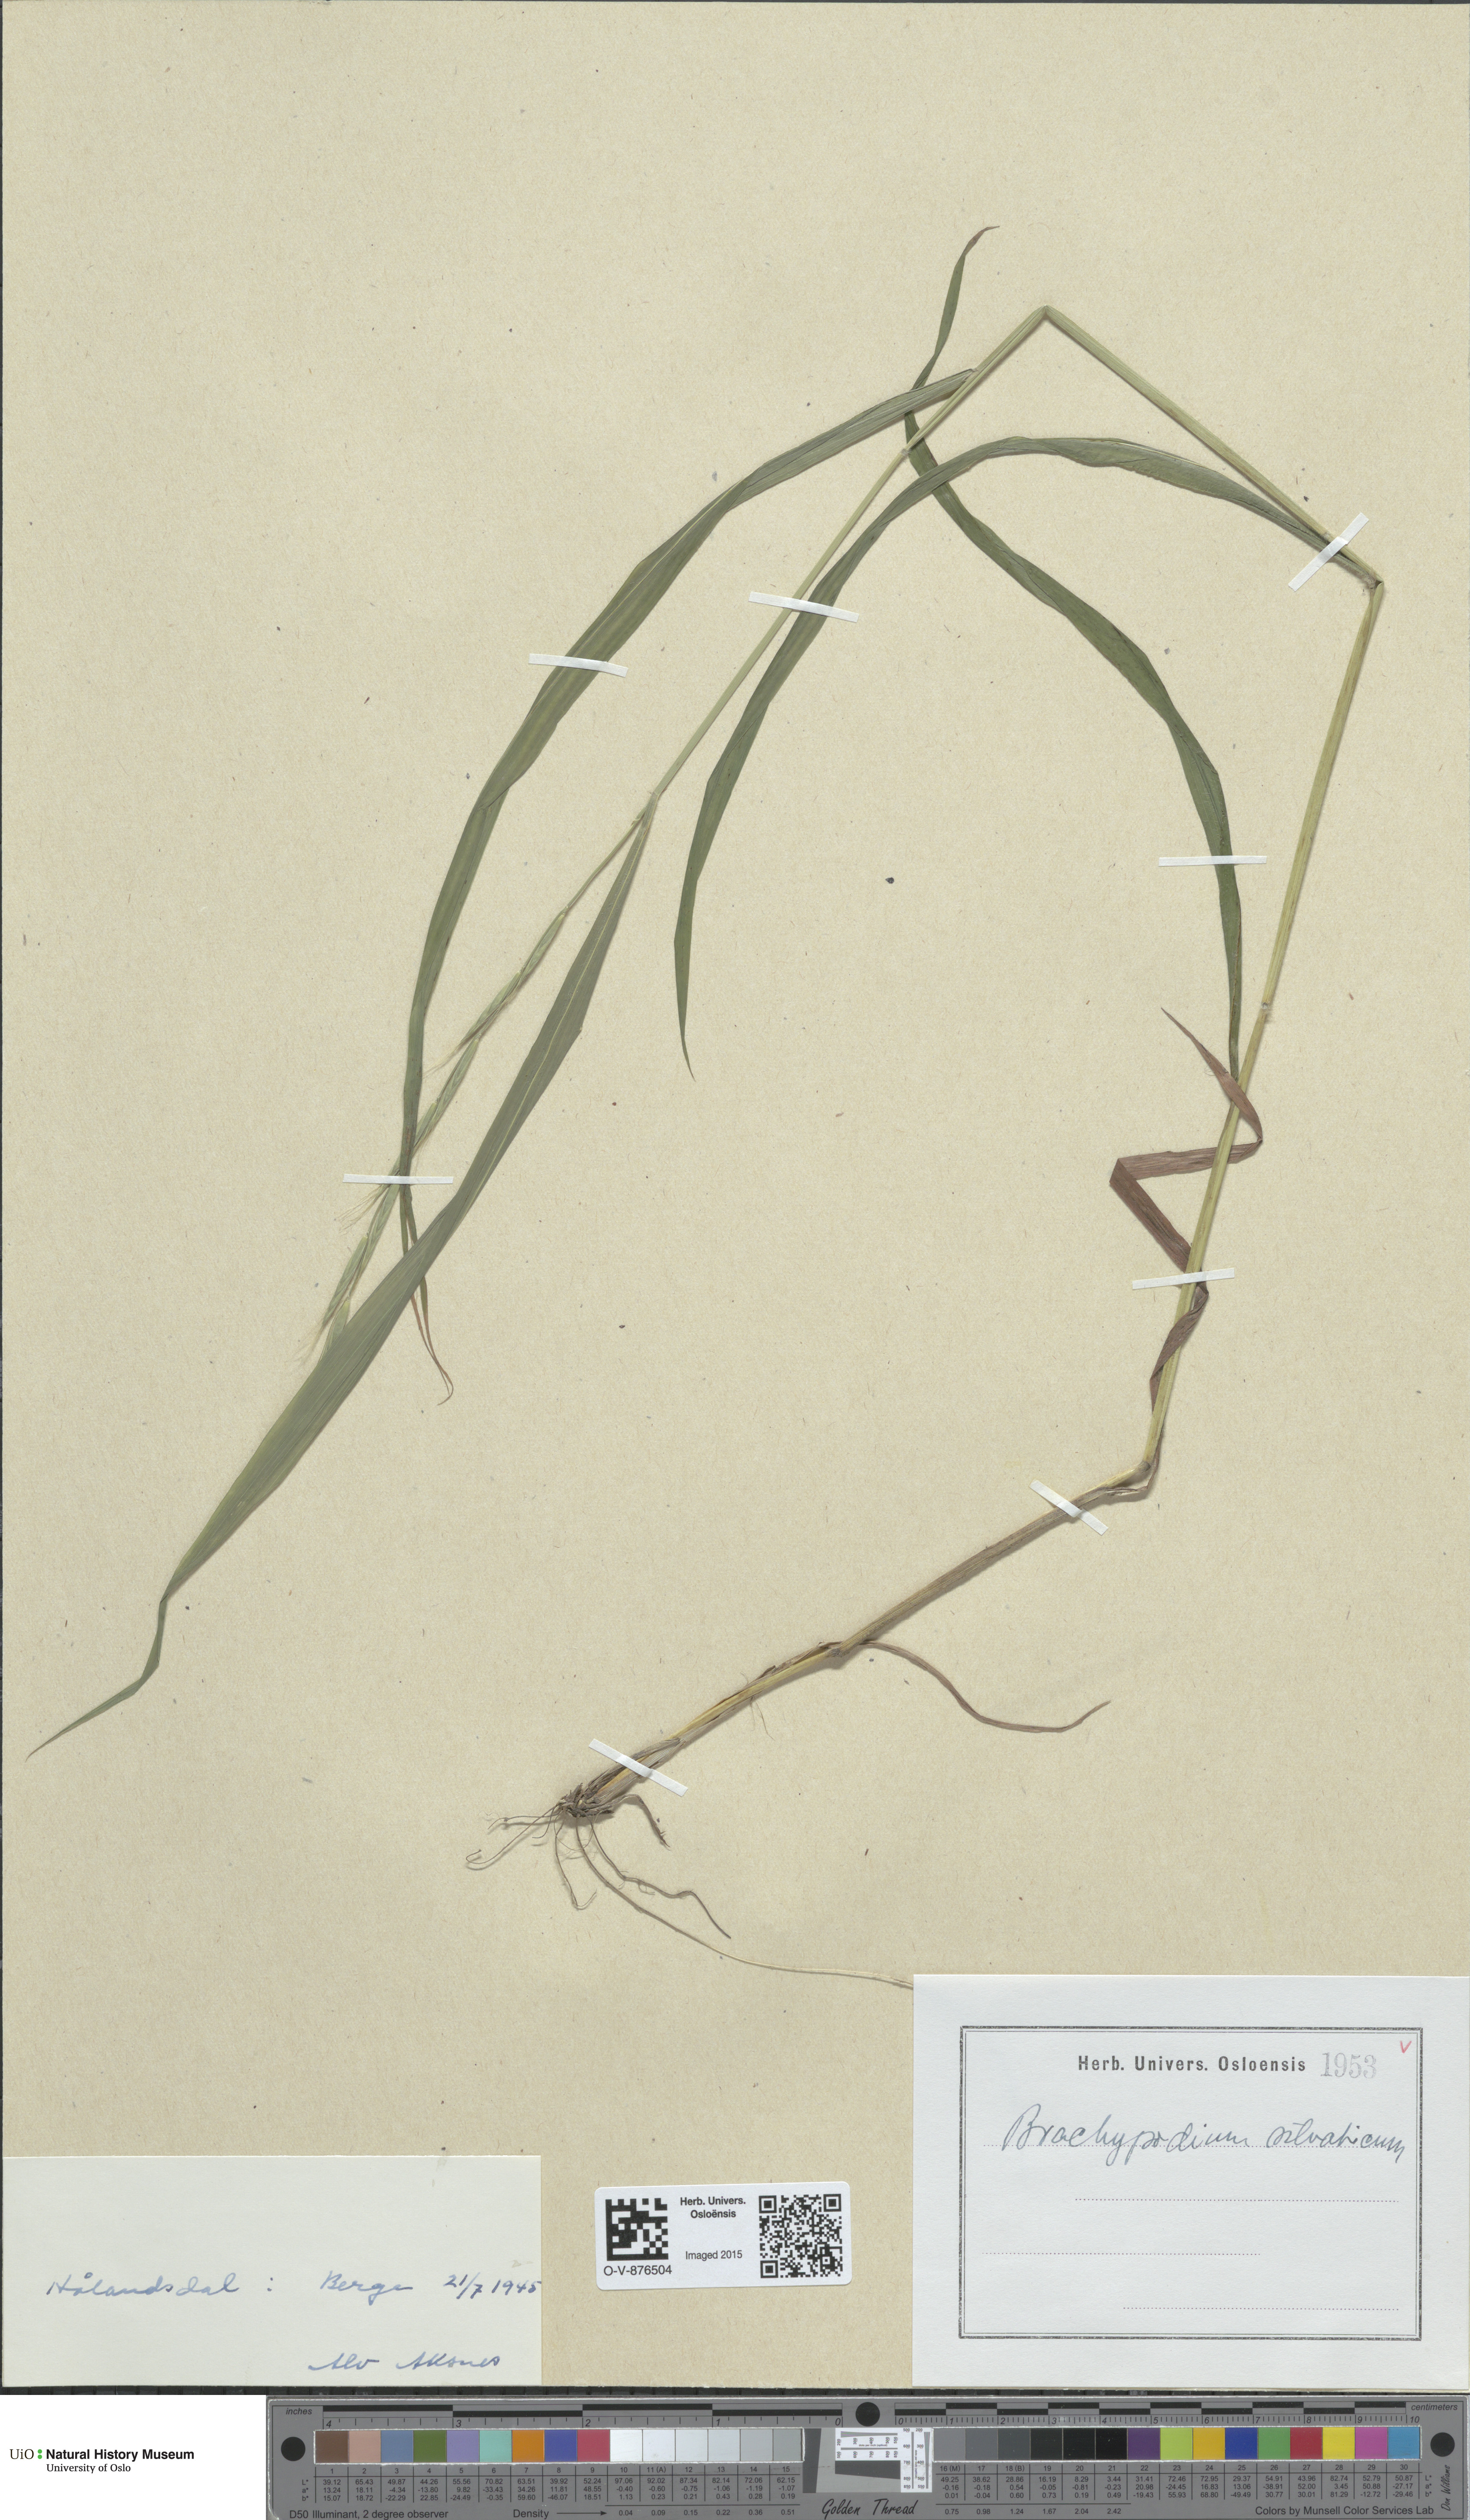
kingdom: Plantae
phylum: Tracheophyta
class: Liliopsida
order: Poales
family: Poaceae
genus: Brachypodium
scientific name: Brachypodium sylvaticum
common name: False-brome
